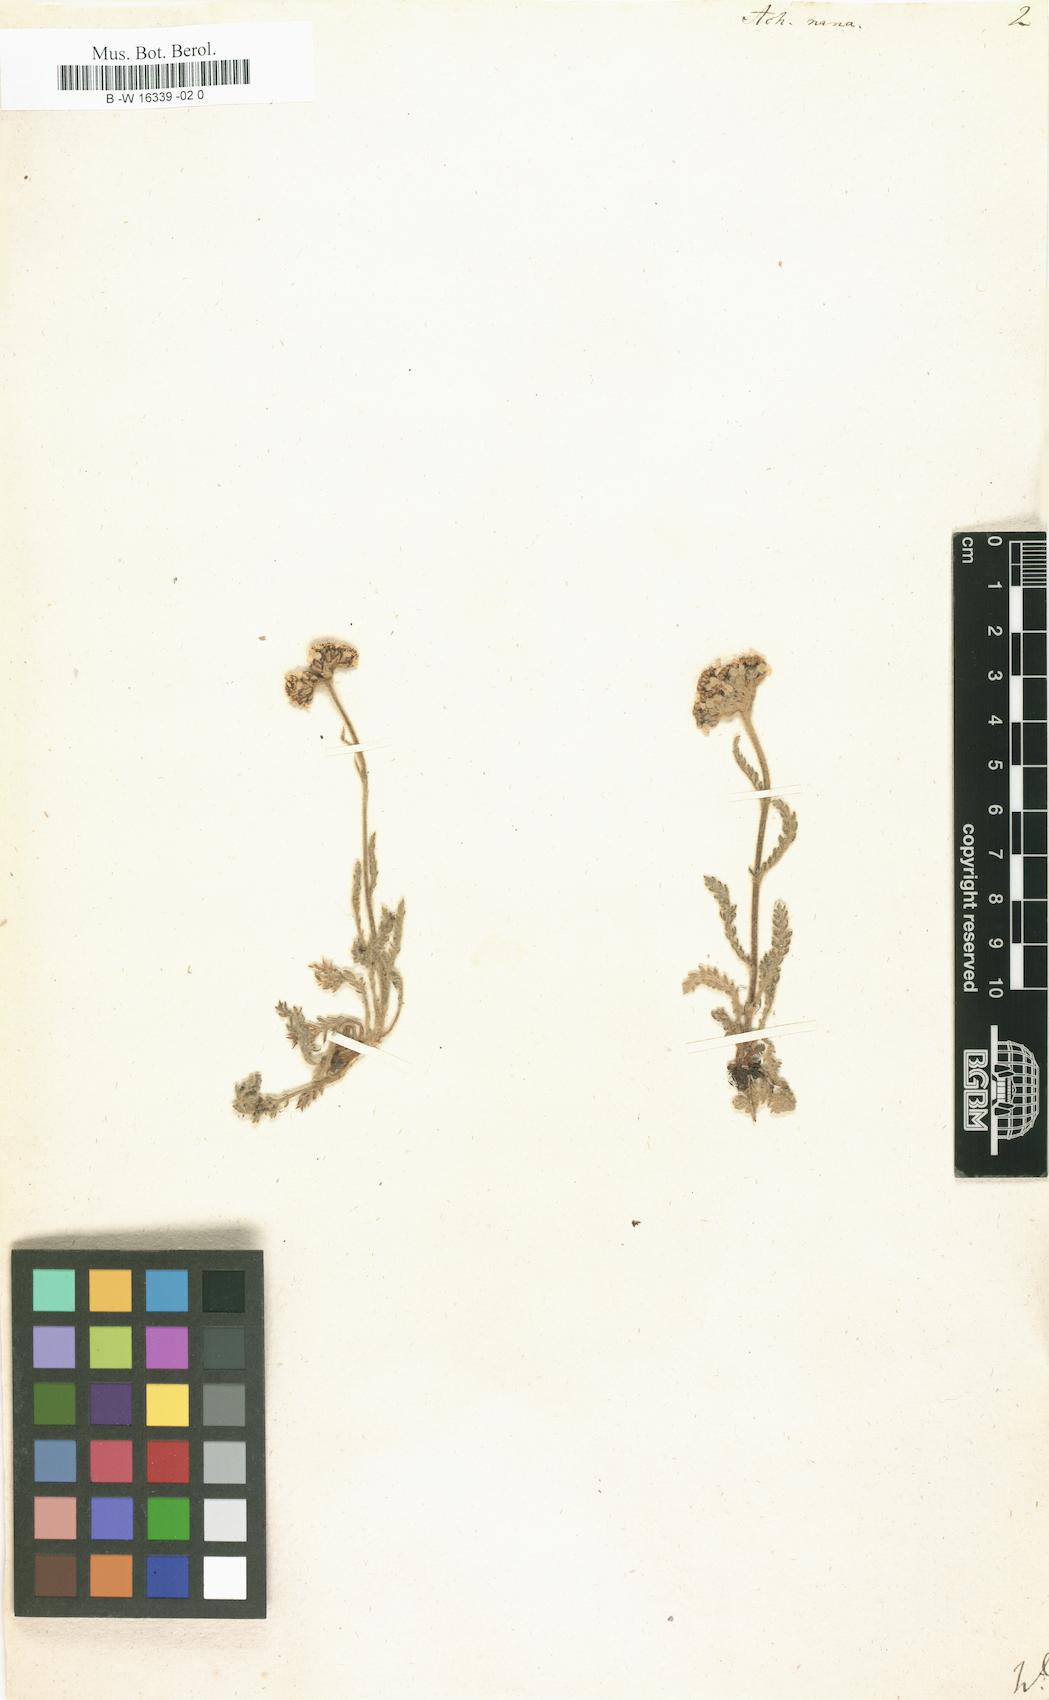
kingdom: Plantae
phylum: Tracheophyta
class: Magnoliopsida
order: Asterales
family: Asteraceae
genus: Achillea
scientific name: Achillea nana
